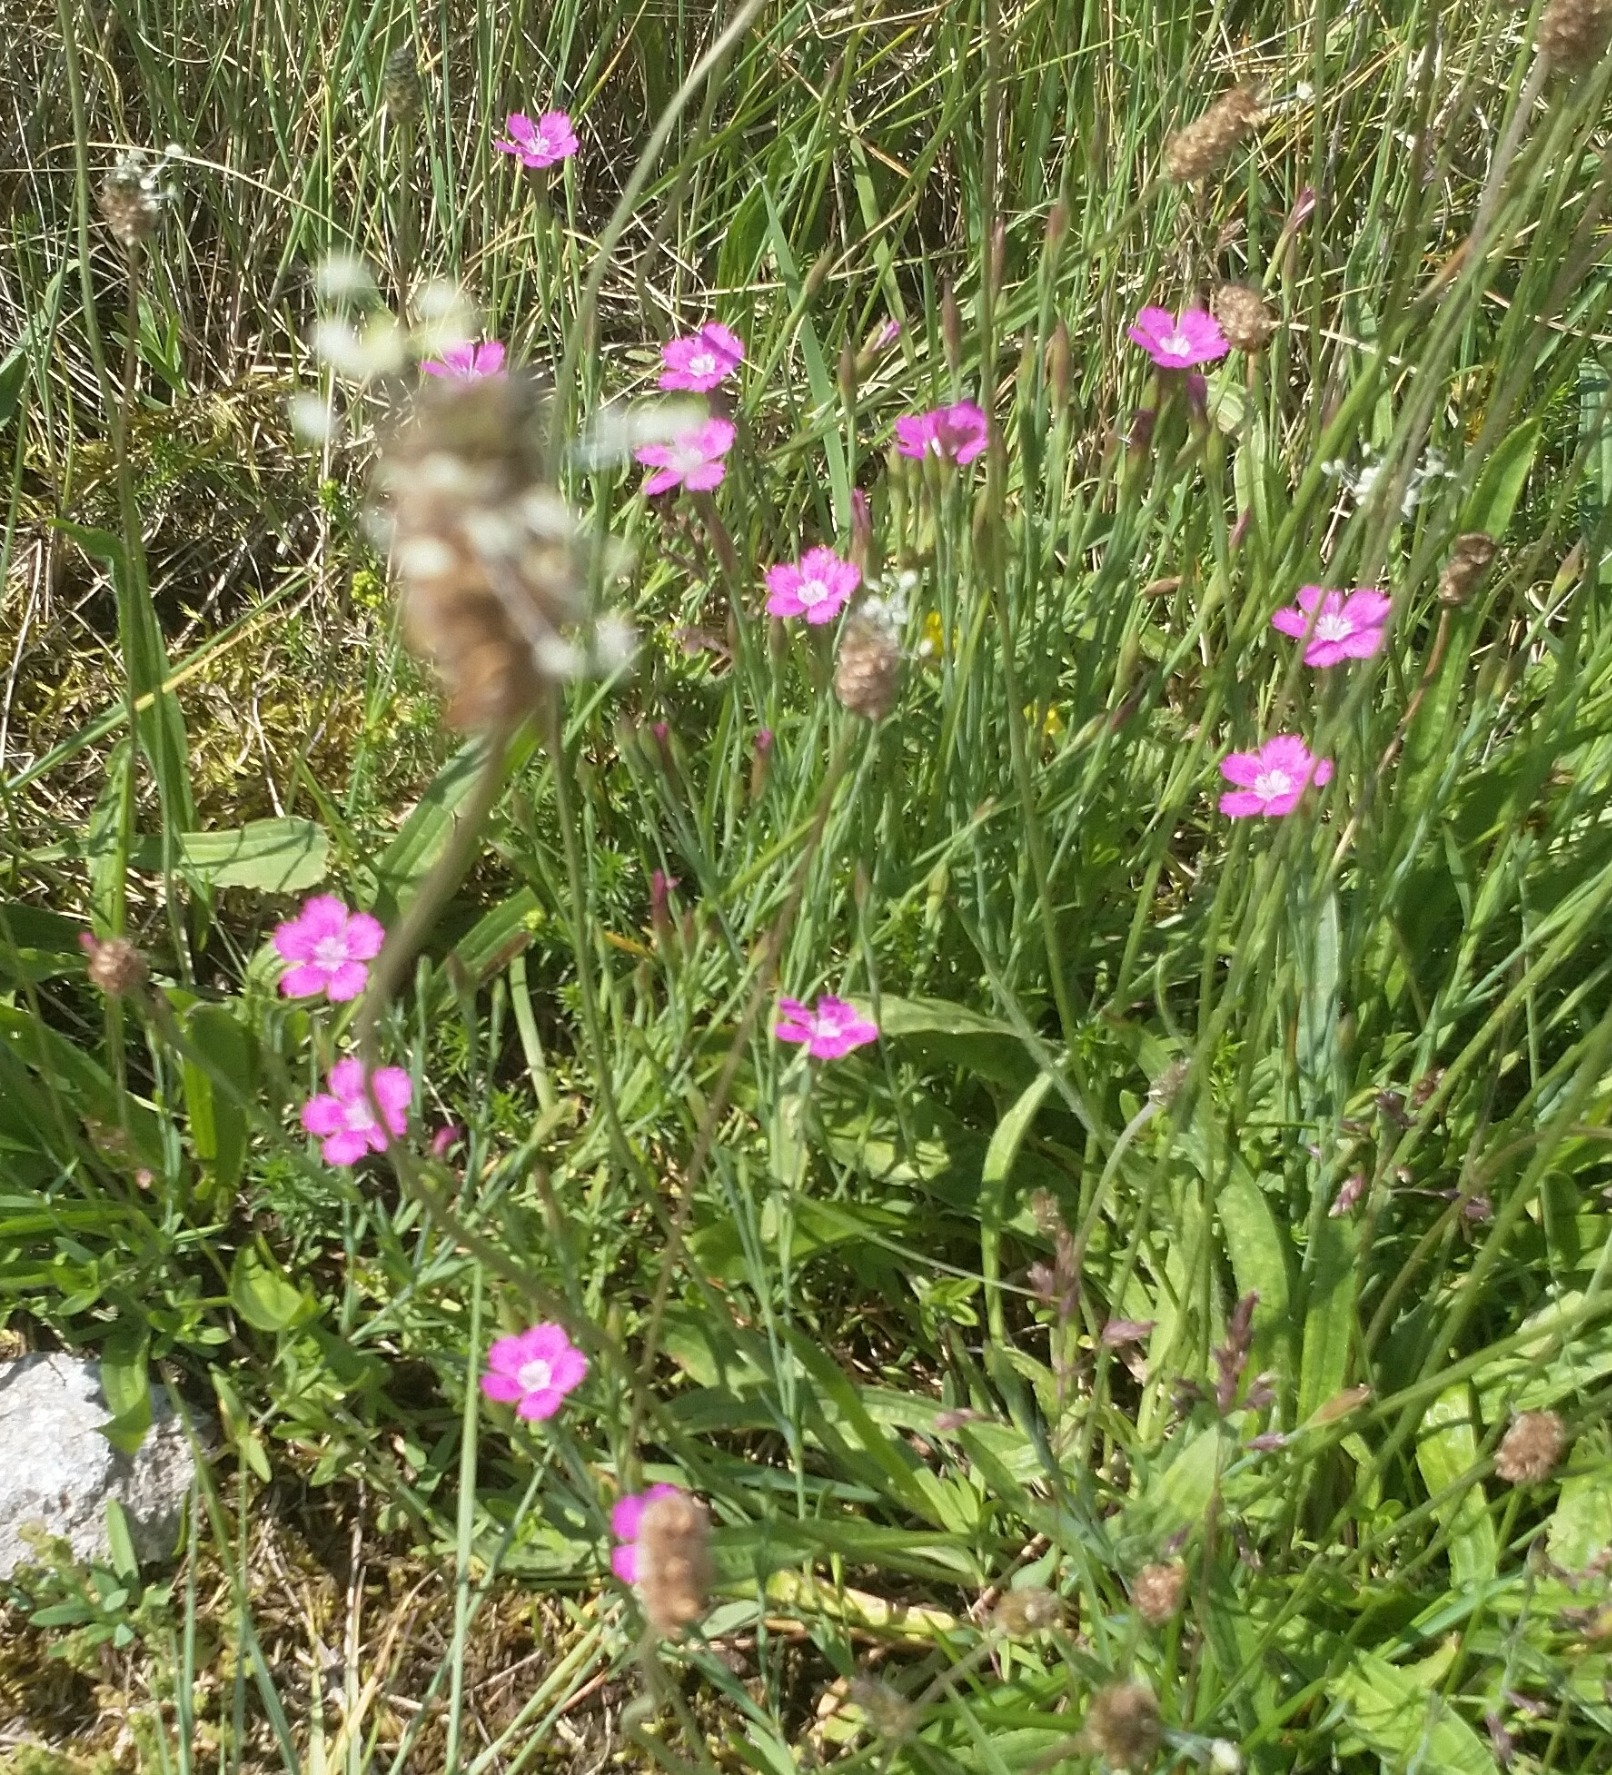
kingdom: Plantae
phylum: Tracheophyta
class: Magnoliopsida
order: Caryophyllales
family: Caryophyllaceae
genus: Dianthus
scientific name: Dianthus deltoides
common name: Bakke-nellike
